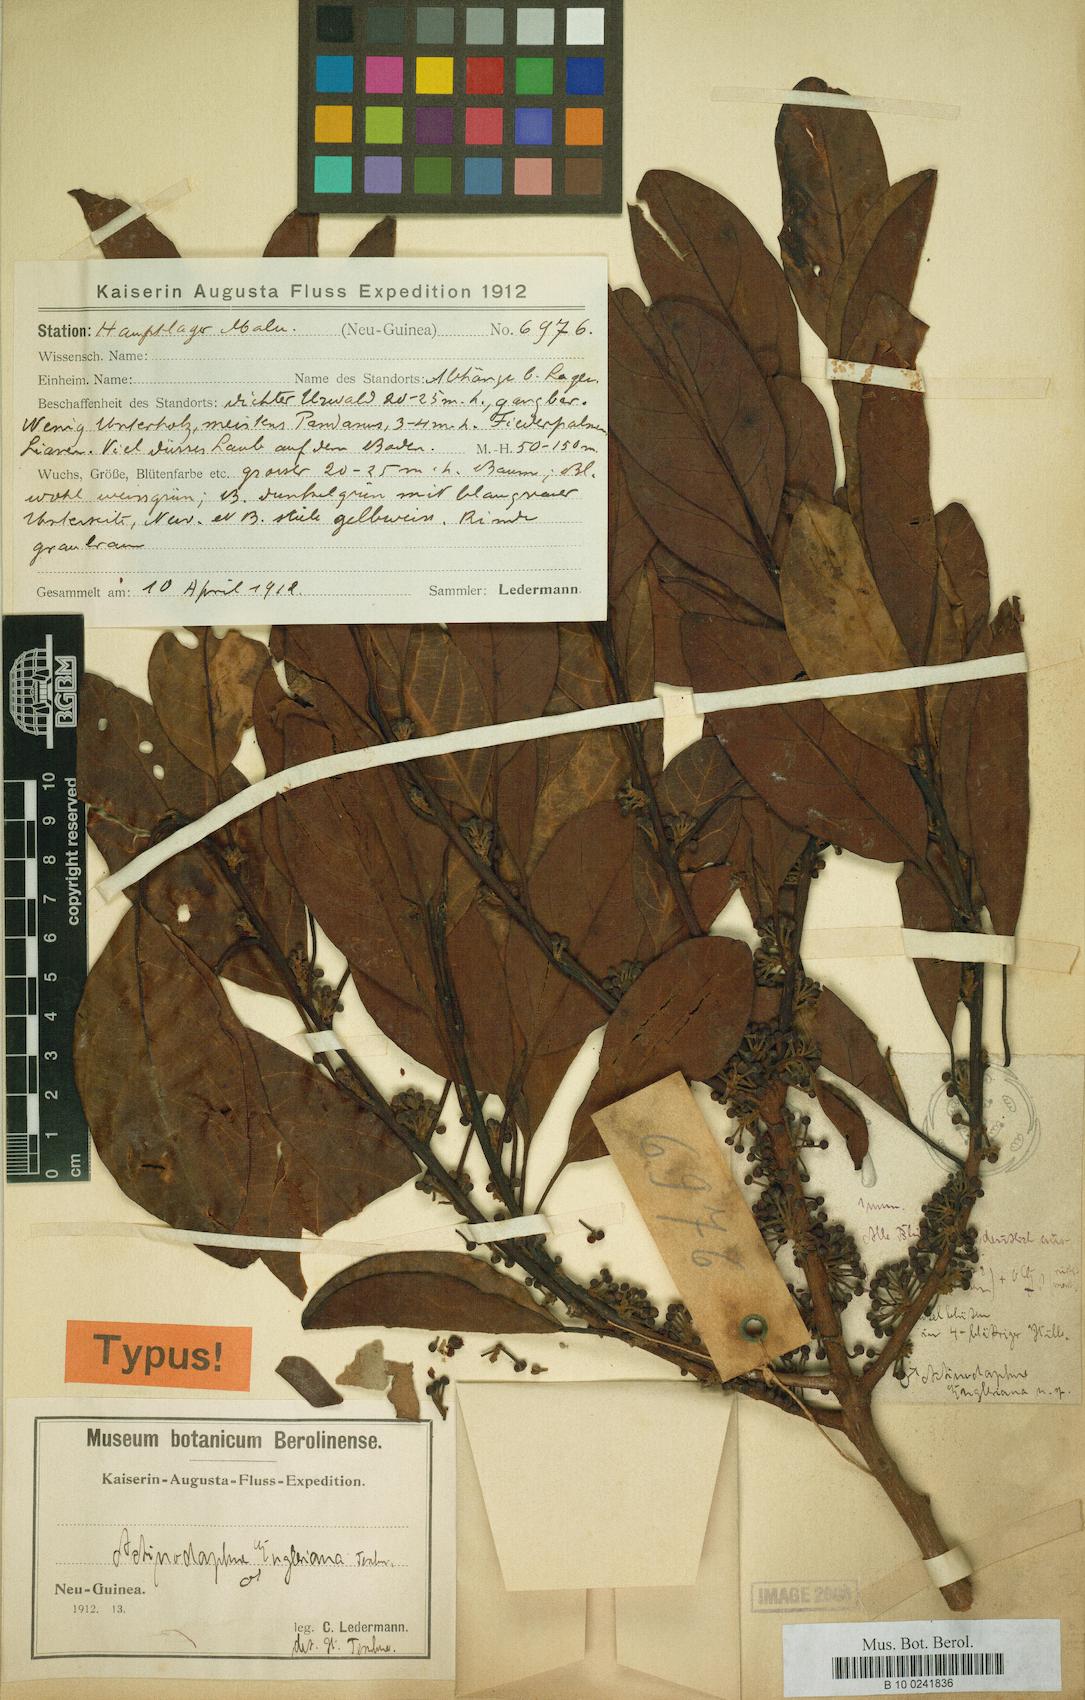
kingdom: Plantae
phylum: Tracheophyta
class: Magnoliopsida
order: Laurales
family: Lauraceae
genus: Actinodaphne
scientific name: Actinodaphne engleriana
